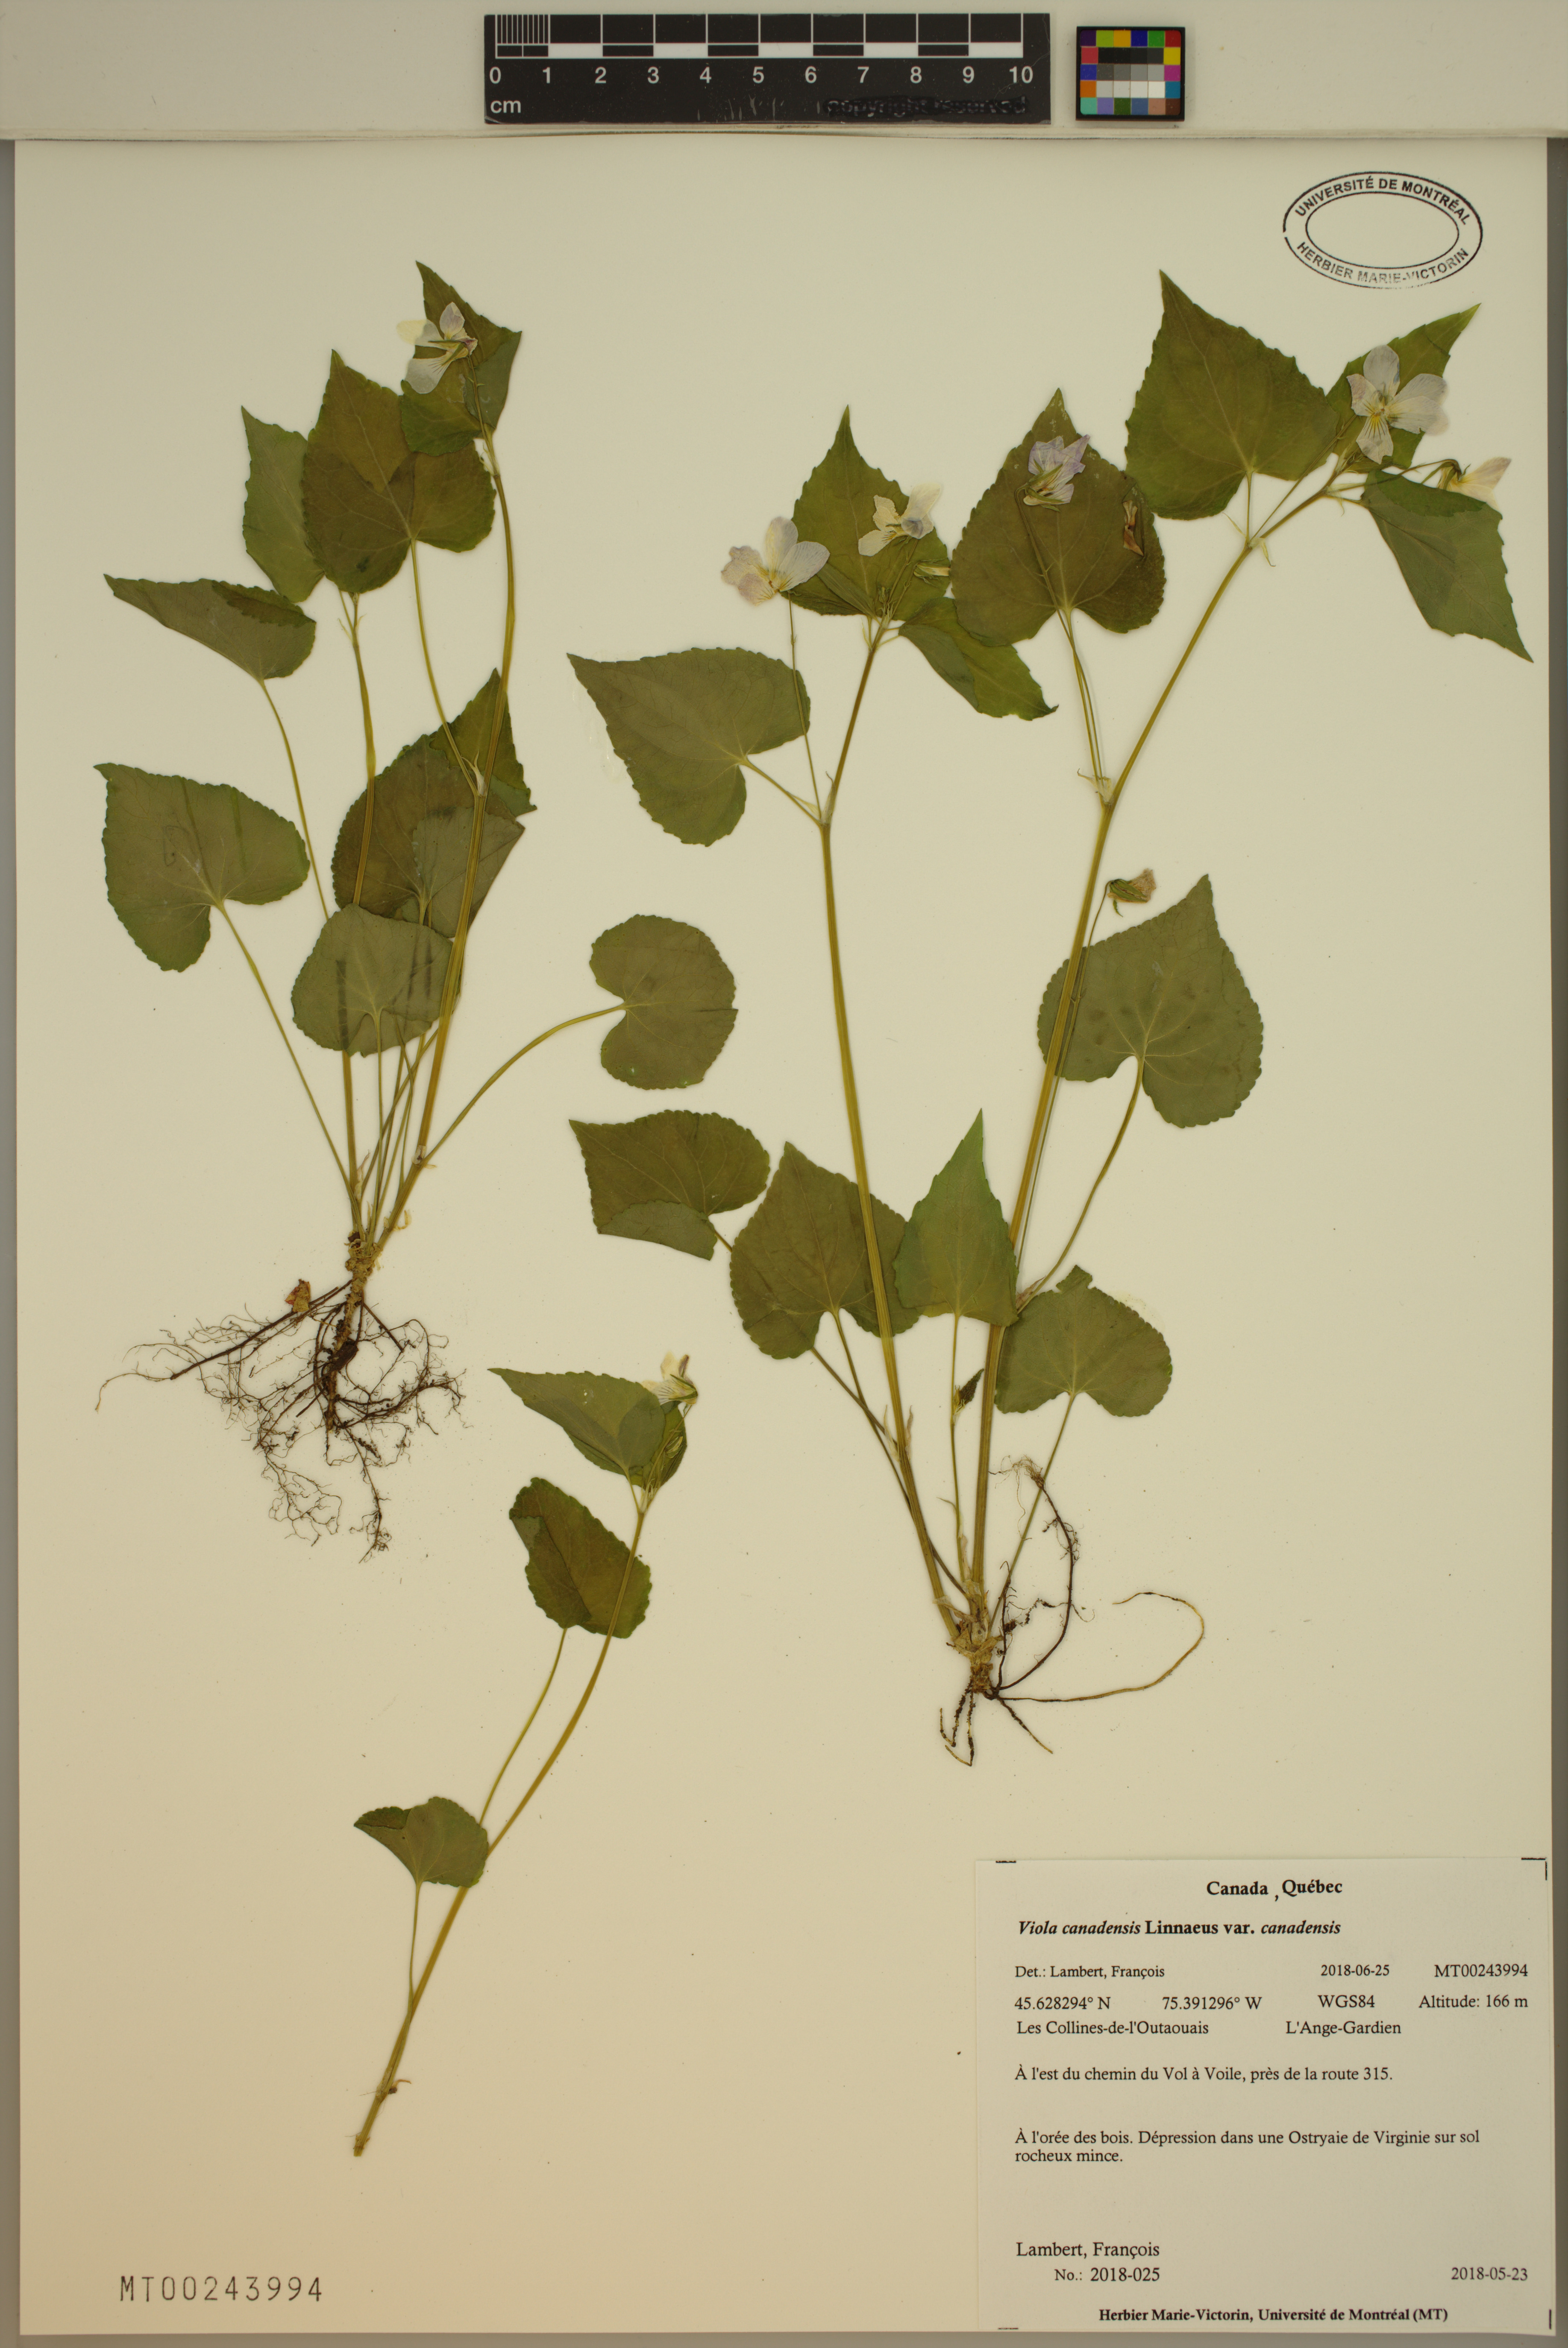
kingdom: Plantae
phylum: Tracheophyta
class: Magnoliopsida
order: Malpighiales
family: Violaceae
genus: Viola
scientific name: Viola canadensis
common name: Canada violet
